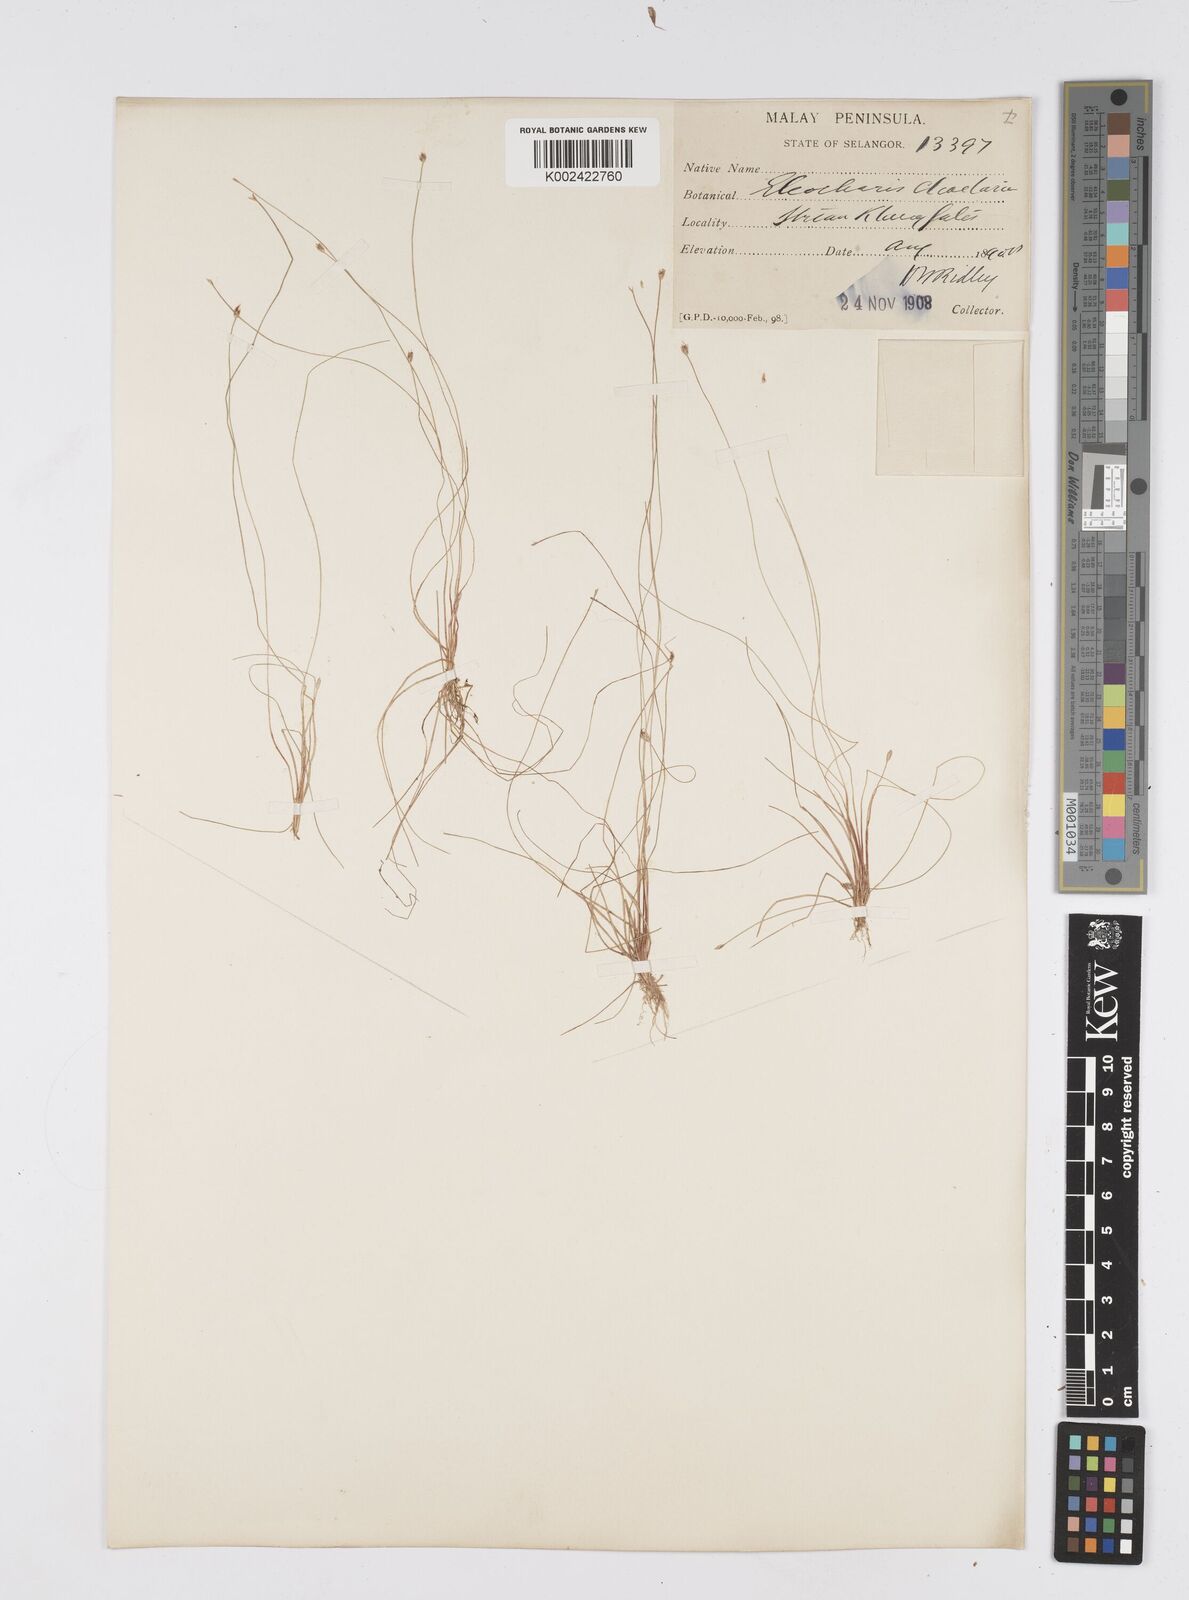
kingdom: Plantae
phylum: Tracheophyta
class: Liliopsida
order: Poales
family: Cyperaceae
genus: Eleocharis
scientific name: Eleocharis retroflexa
